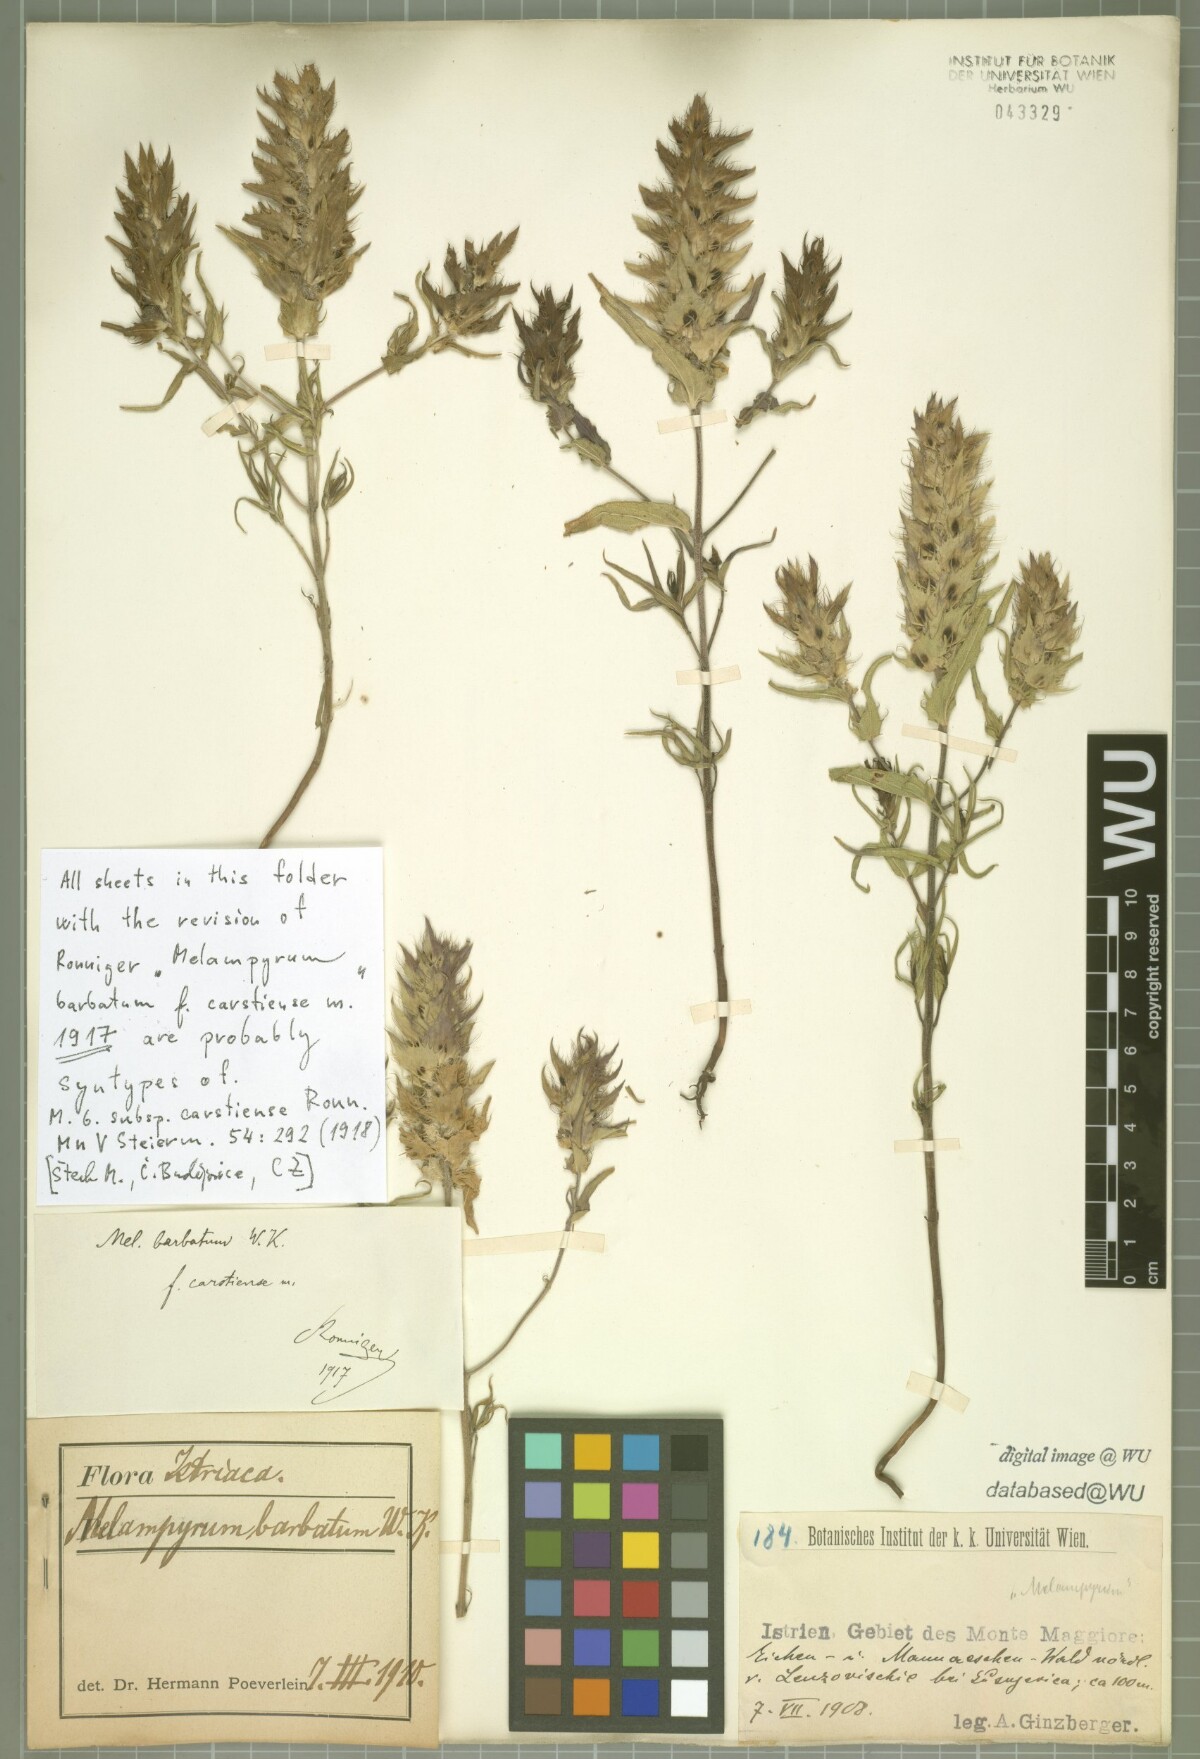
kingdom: Plantae
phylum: Tracheophyta
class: Magnoliopsida
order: Lamiales
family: Orobanchaceae
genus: Melampyrum
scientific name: Melampyrum barbatum
